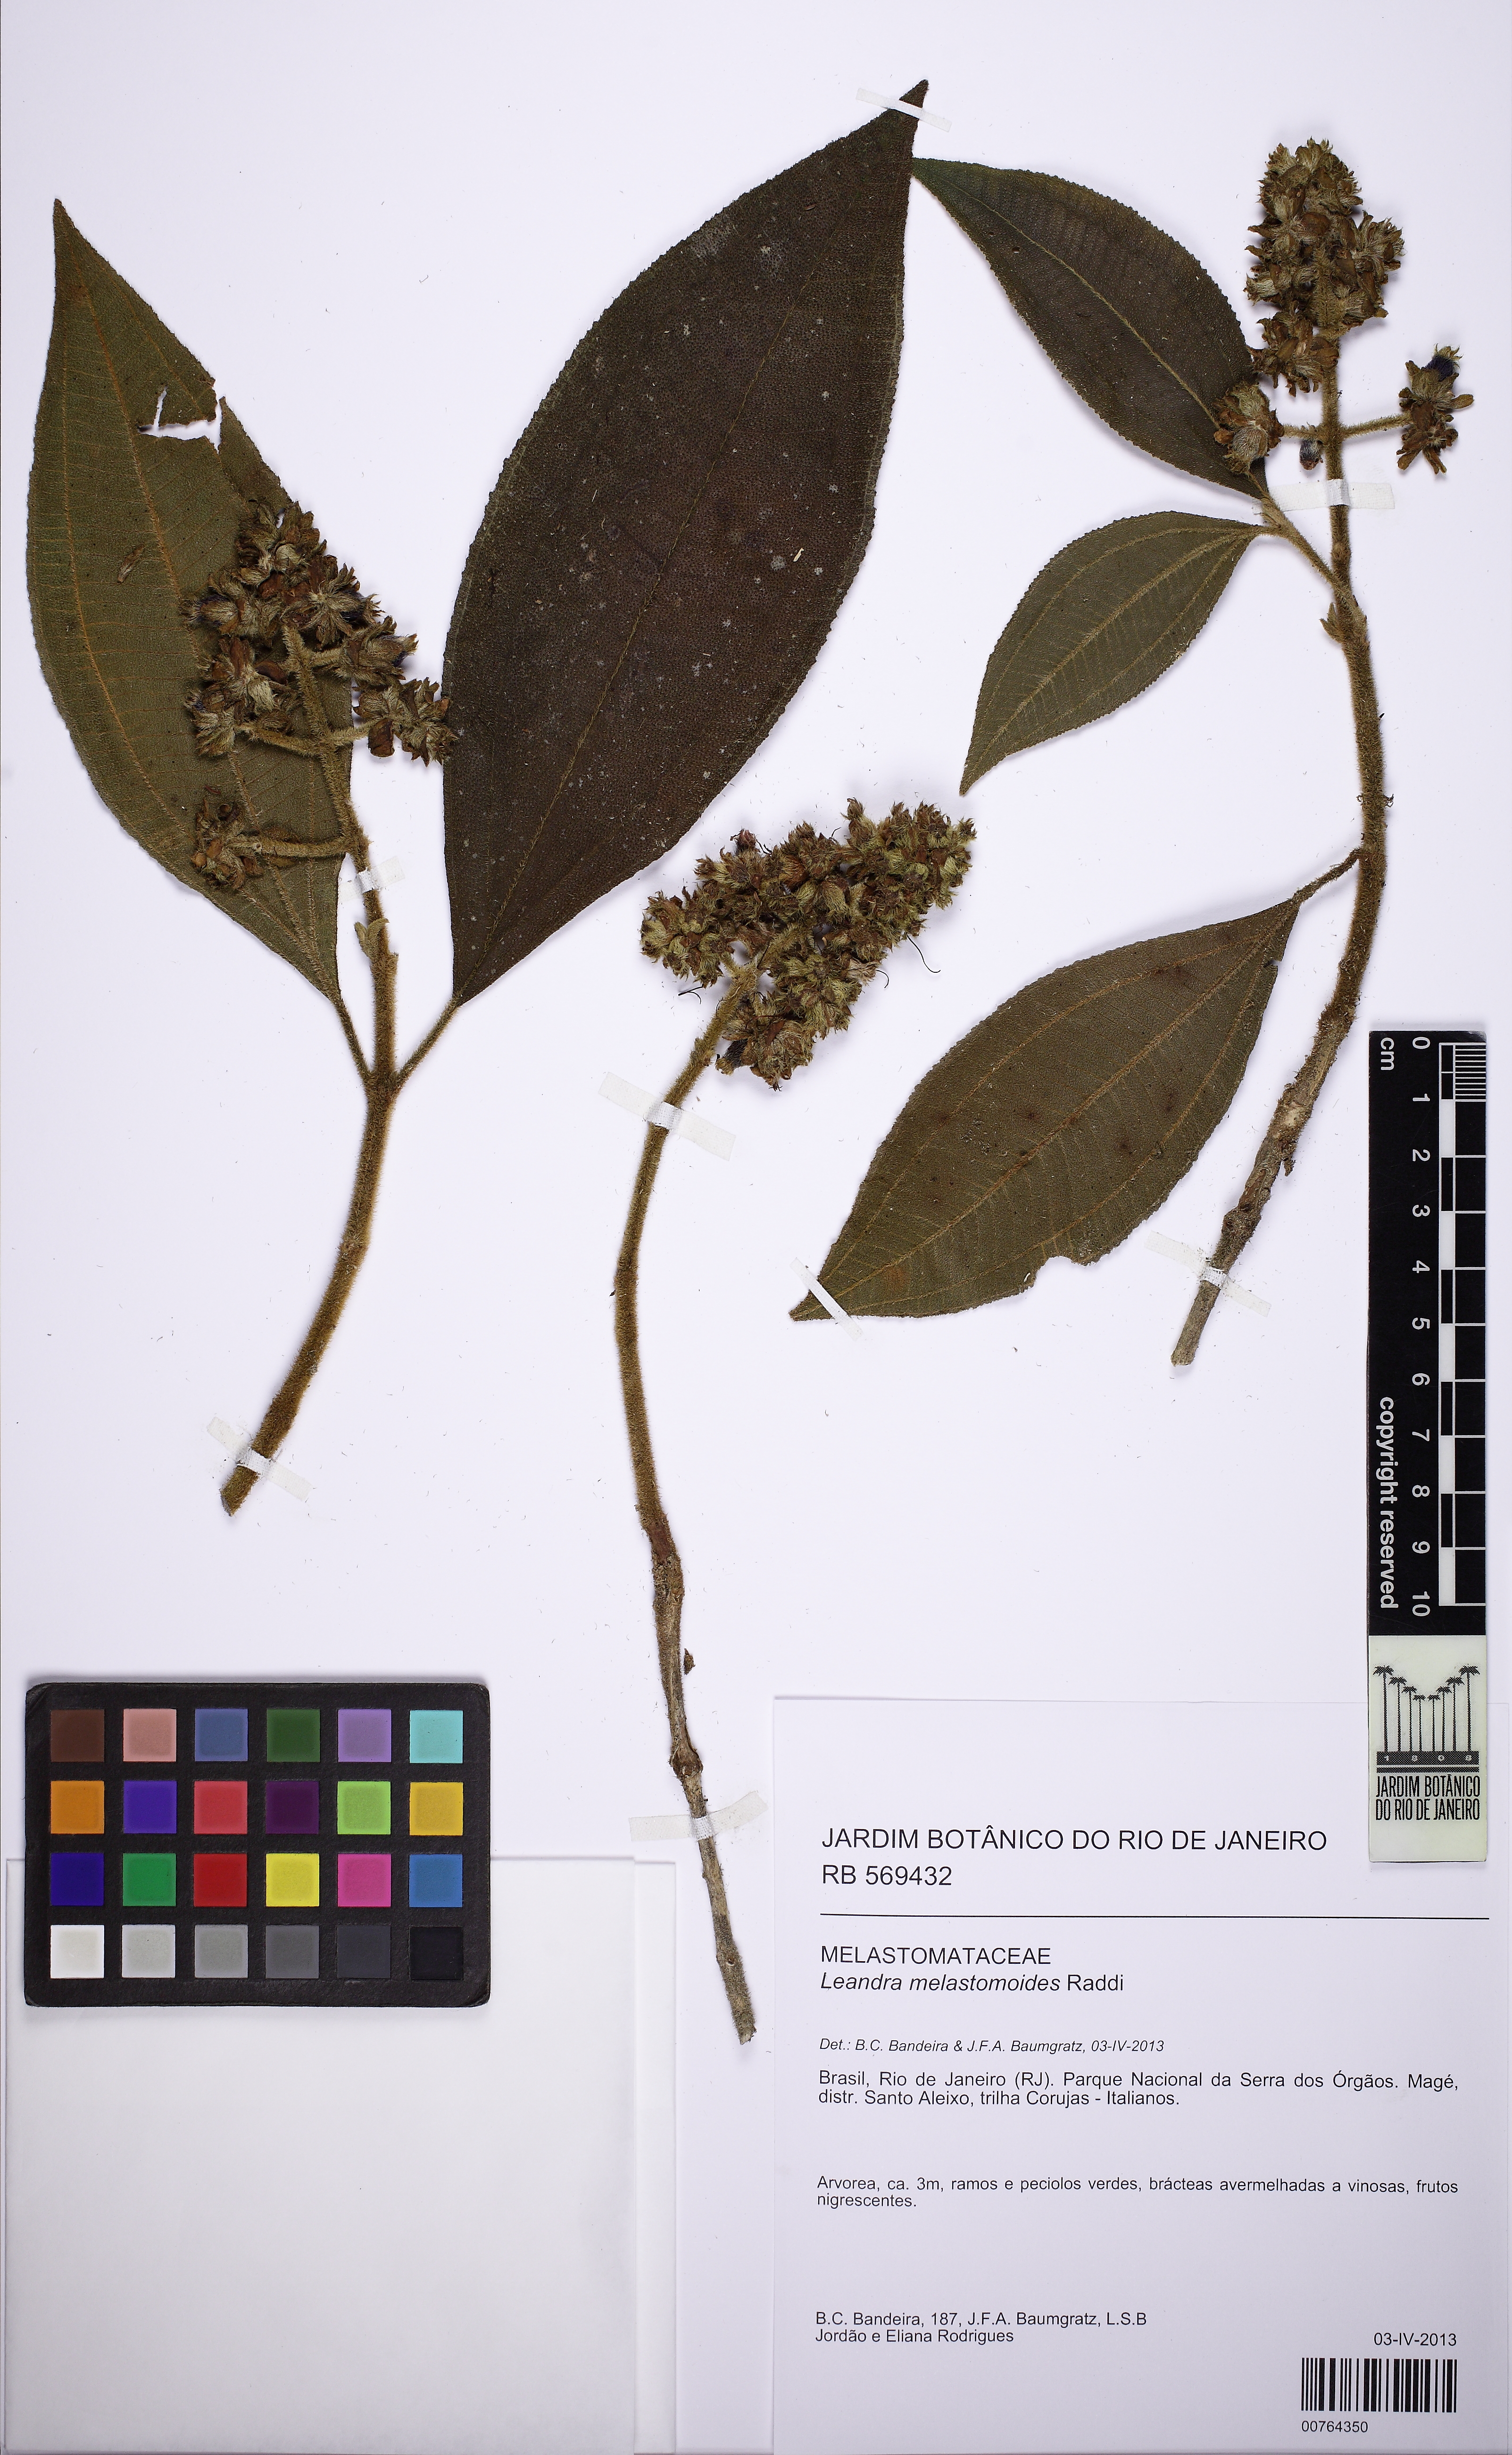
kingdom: Plantae
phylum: Tracheophyta
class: Magnoliopsida
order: Myrtales
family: Melastomataceae
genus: Miconia
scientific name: Miconia melastomoides
